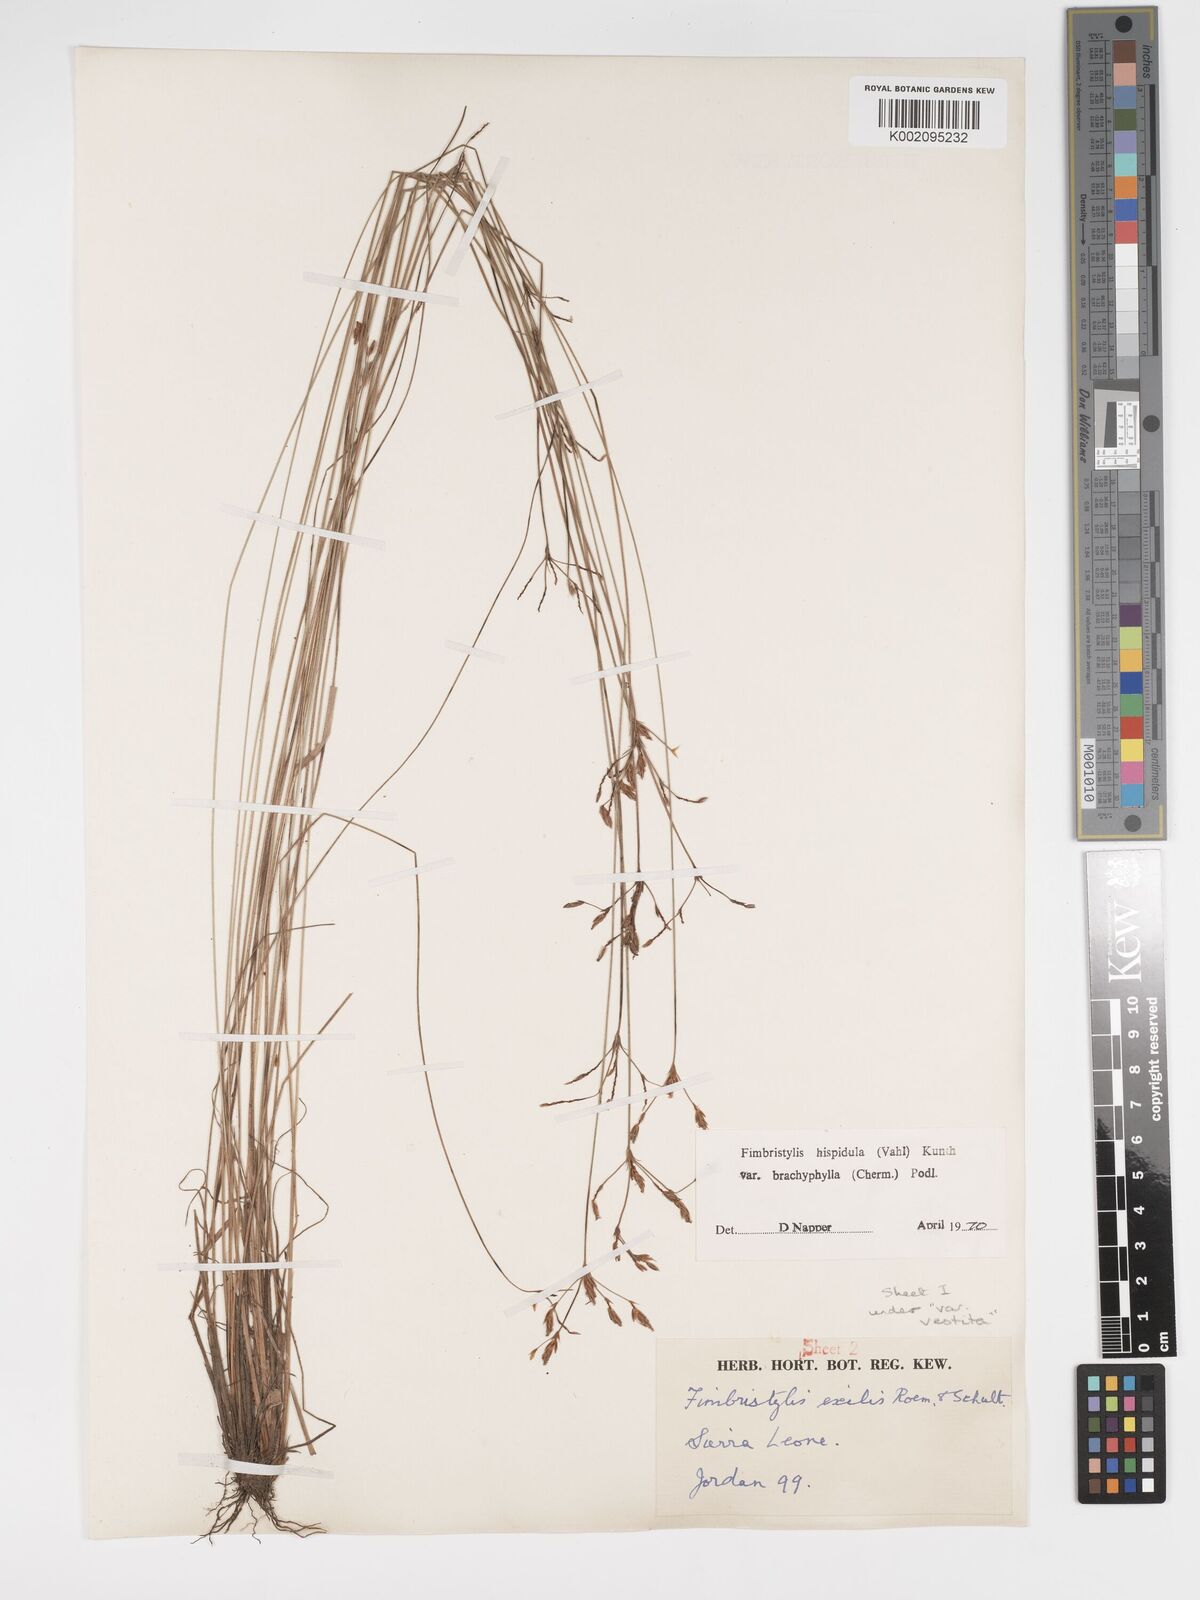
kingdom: Plantae
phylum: Tracheophyta
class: Liliopsida
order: Poales
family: Cyperaceae
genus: Bulbostylis
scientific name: Bulbostylis hispidula
